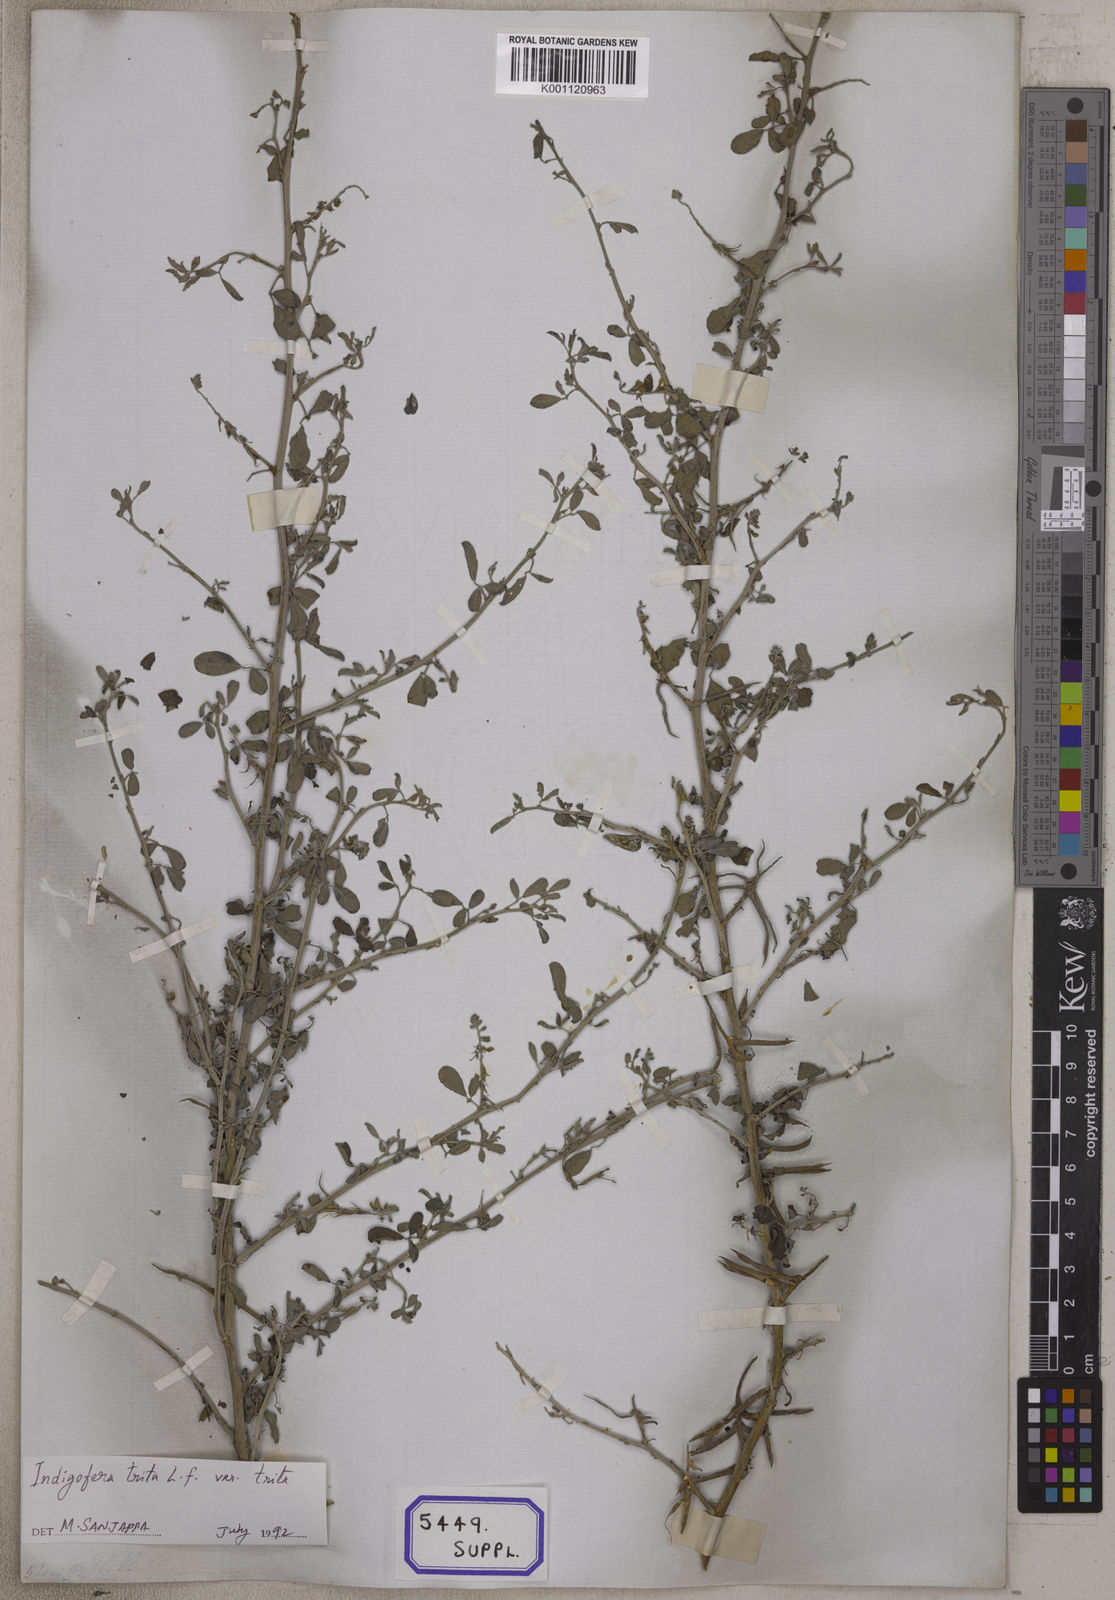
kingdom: Plantae
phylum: Tracheophyta
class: Magnoliopsida
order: Fabales
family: Fabaceae
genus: Indigofera
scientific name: Indigofera trita
